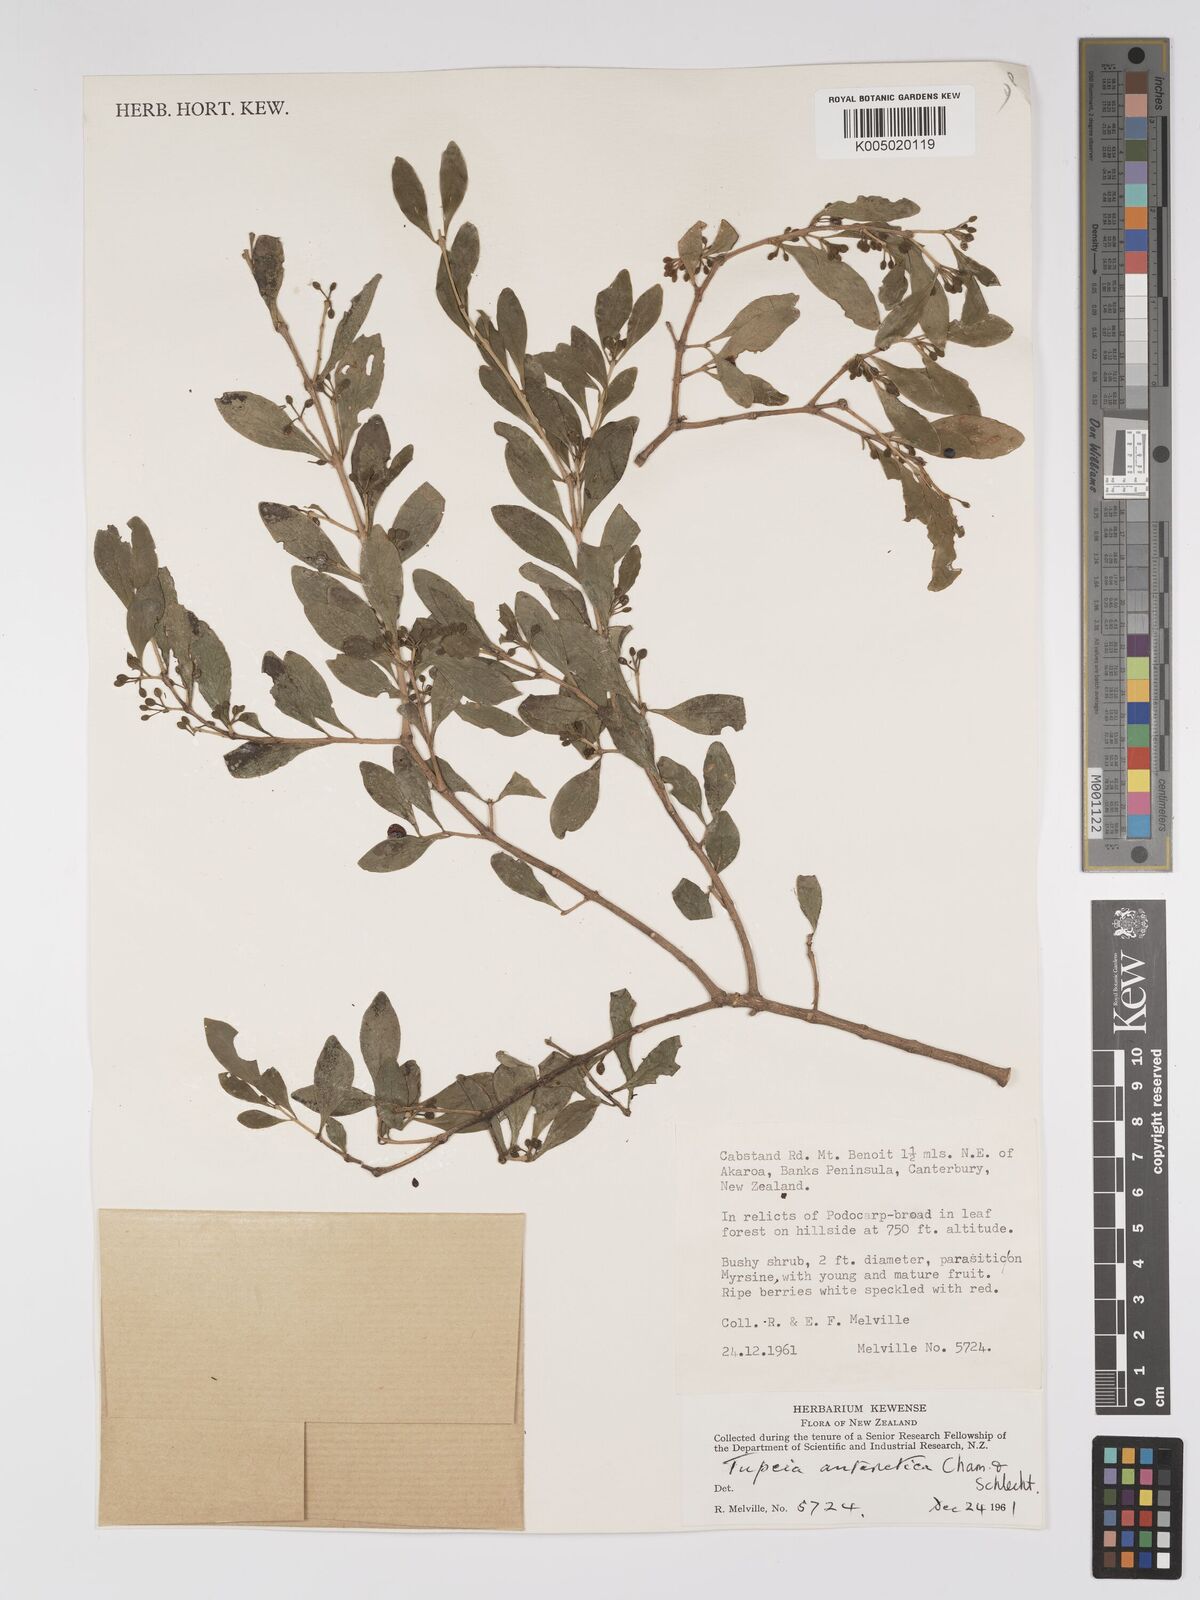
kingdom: Plantae
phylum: Tracheophyta
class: Magnoliopsida
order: Santalales
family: Loranthaceae
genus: Tupeia
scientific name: Tupeia antarctica
